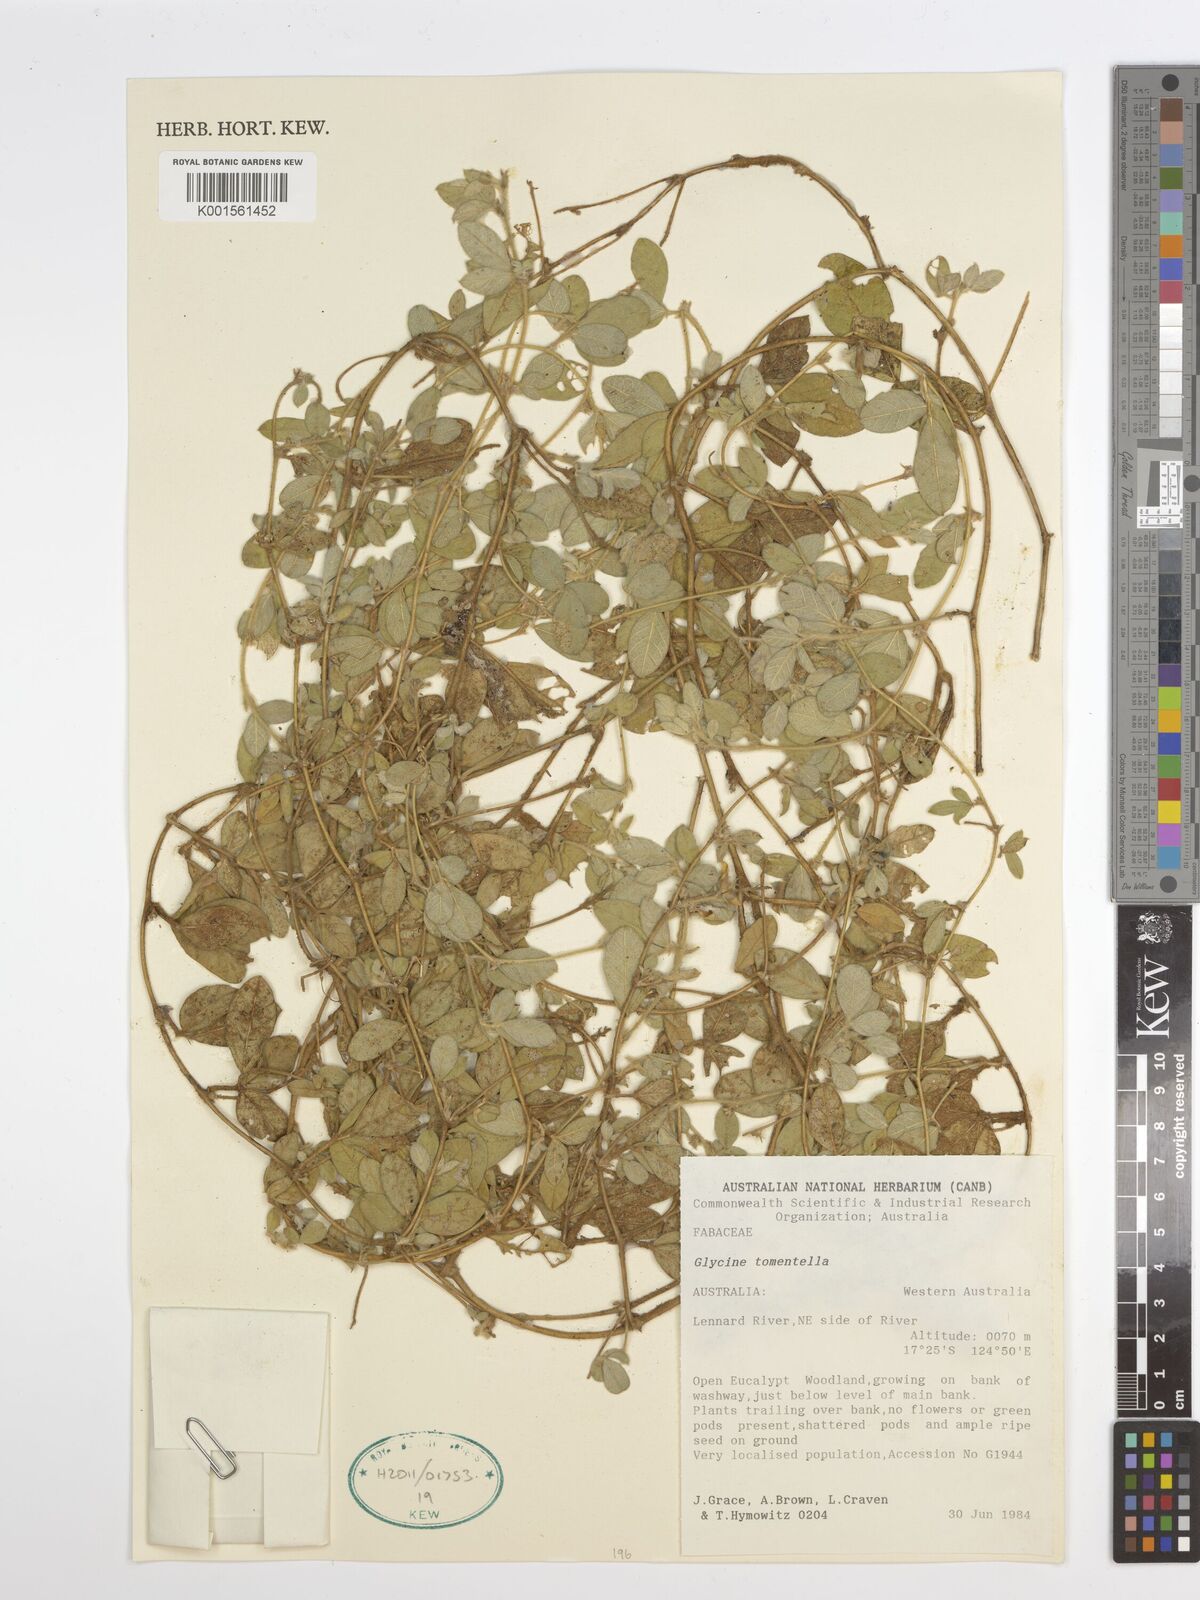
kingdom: Plantae
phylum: Tracheophyta
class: Magnoliopsida
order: Fabales
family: Fabaceae
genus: Glycine
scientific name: Glycine tomentella
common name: Hairy glycine
